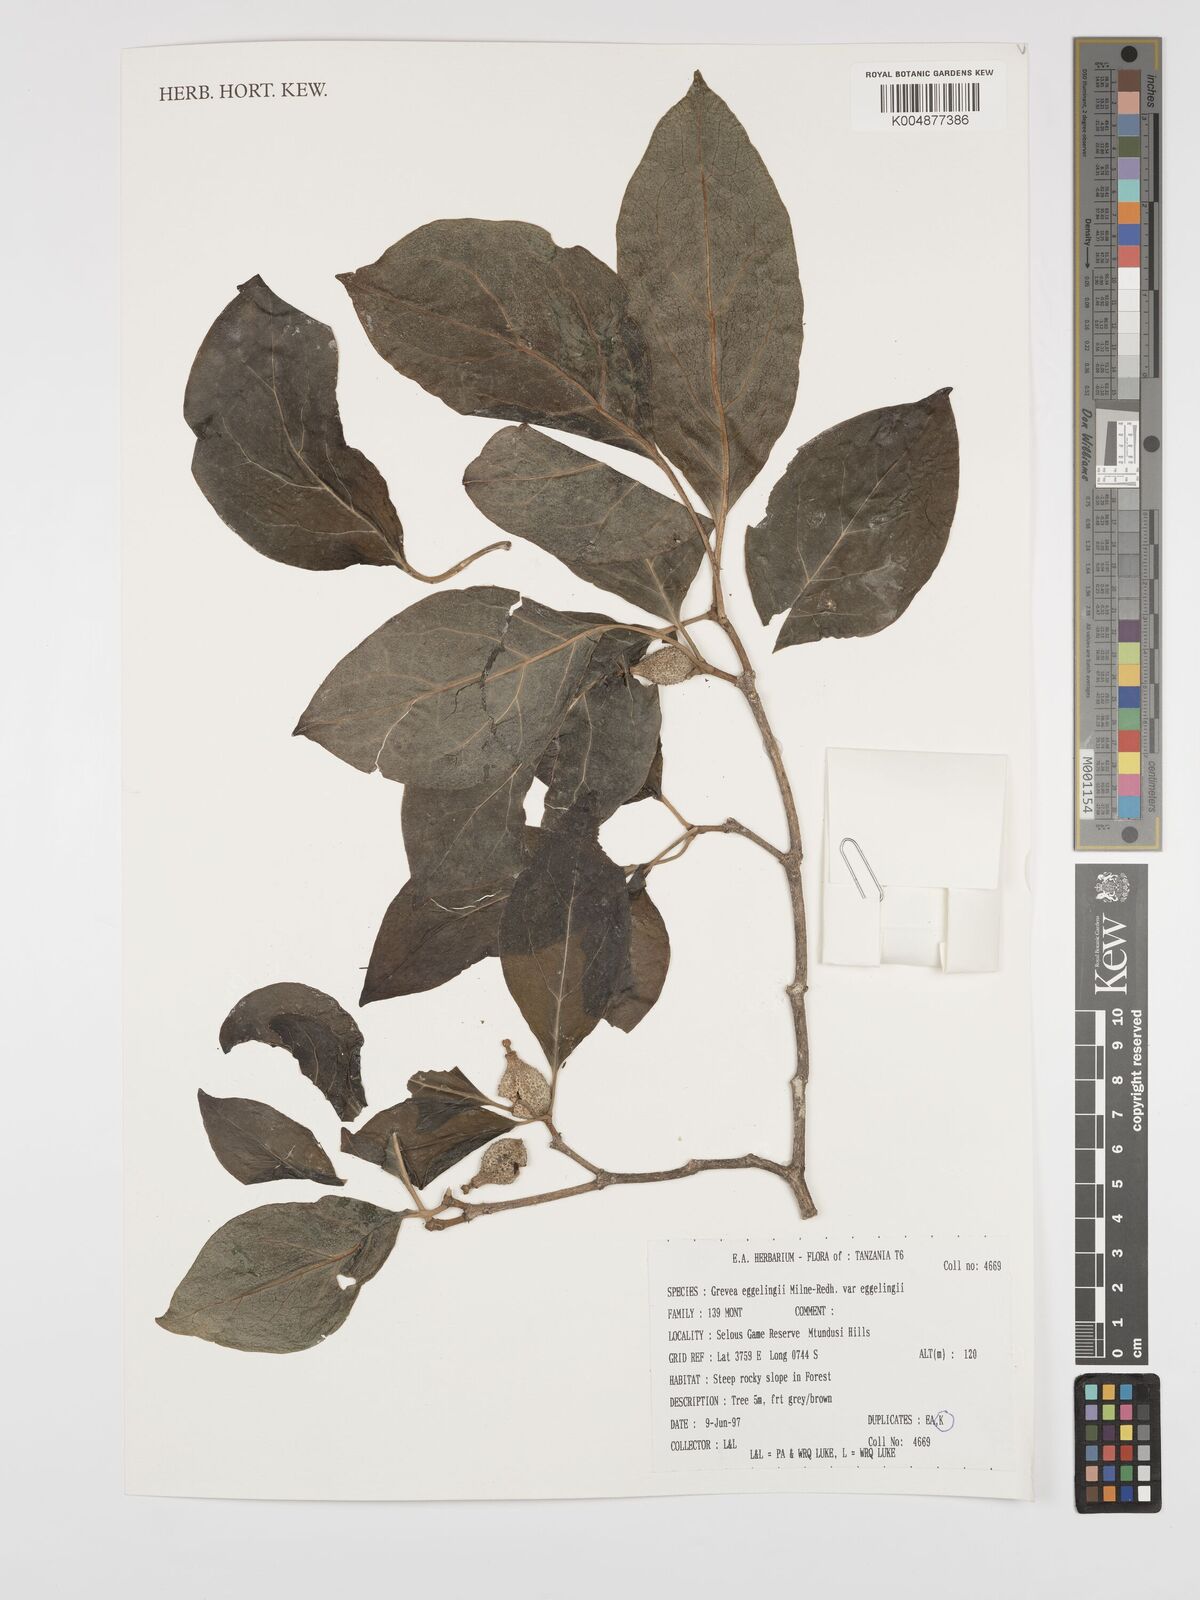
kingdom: Plantae
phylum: Tracheophyta
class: Magnoliopsida
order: Solanales
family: Montiniaceae
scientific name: Montiniaceae
